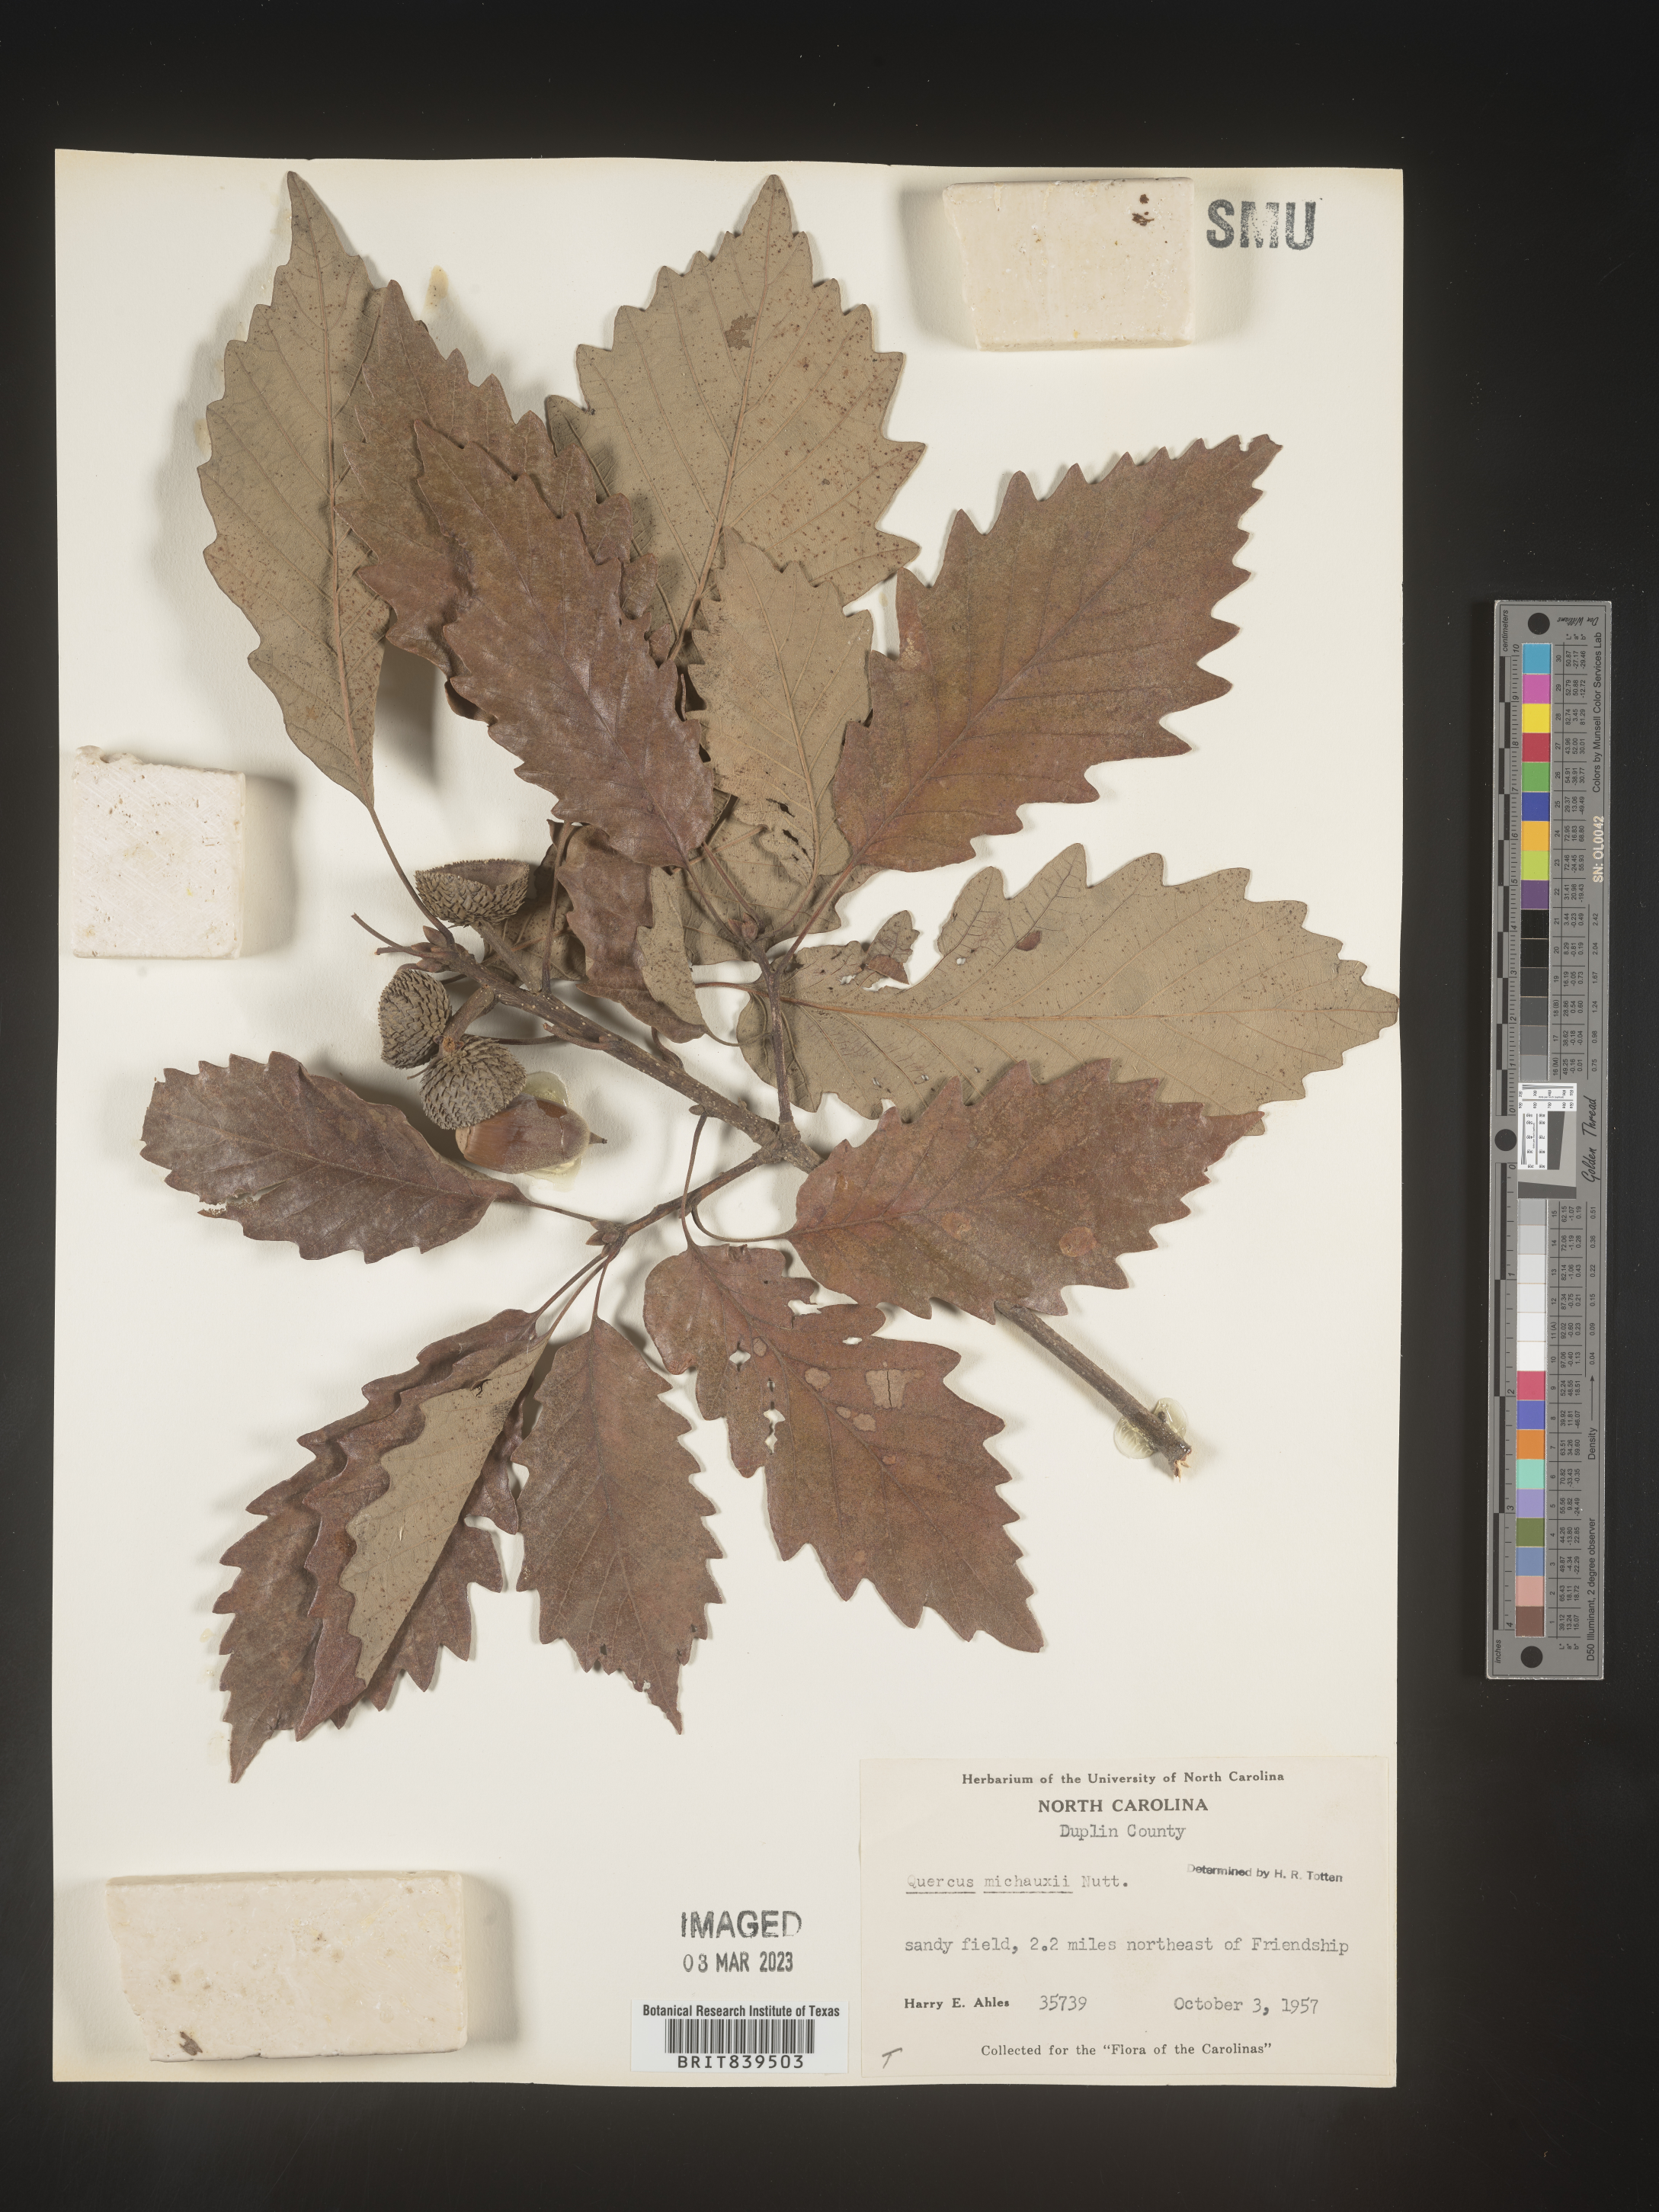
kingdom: Plantae
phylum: Tracheophyta
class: Magnoliopsida
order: Fagales
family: Fagaceae
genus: Quercus
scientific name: Quercus michauxii
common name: Swamp chestnut oak
